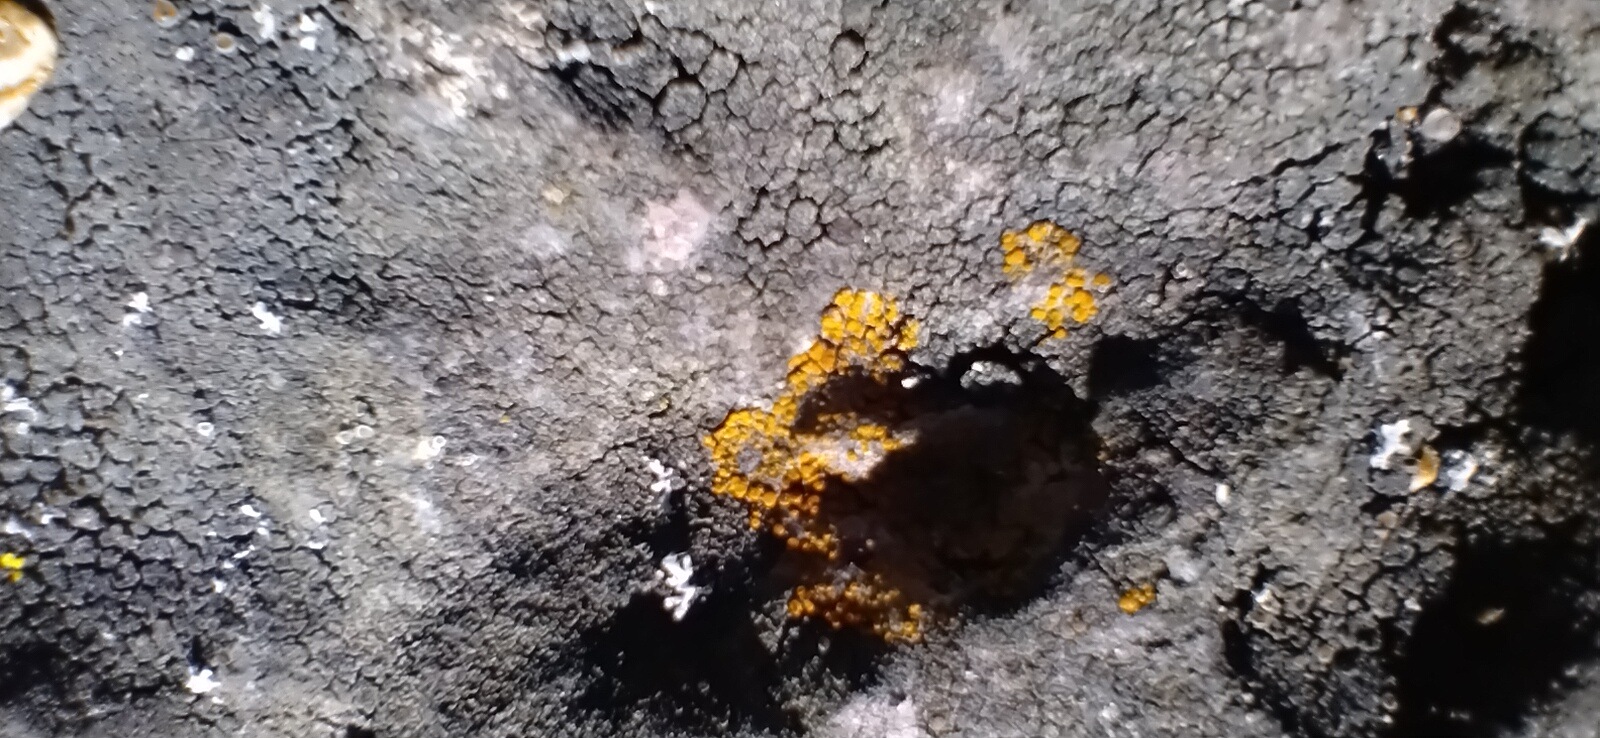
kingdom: Fungi
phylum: Ascomycota
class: Lecanoromycetes
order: Teloschistales
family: Teloschistaceae
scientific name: Teloschistaceae
